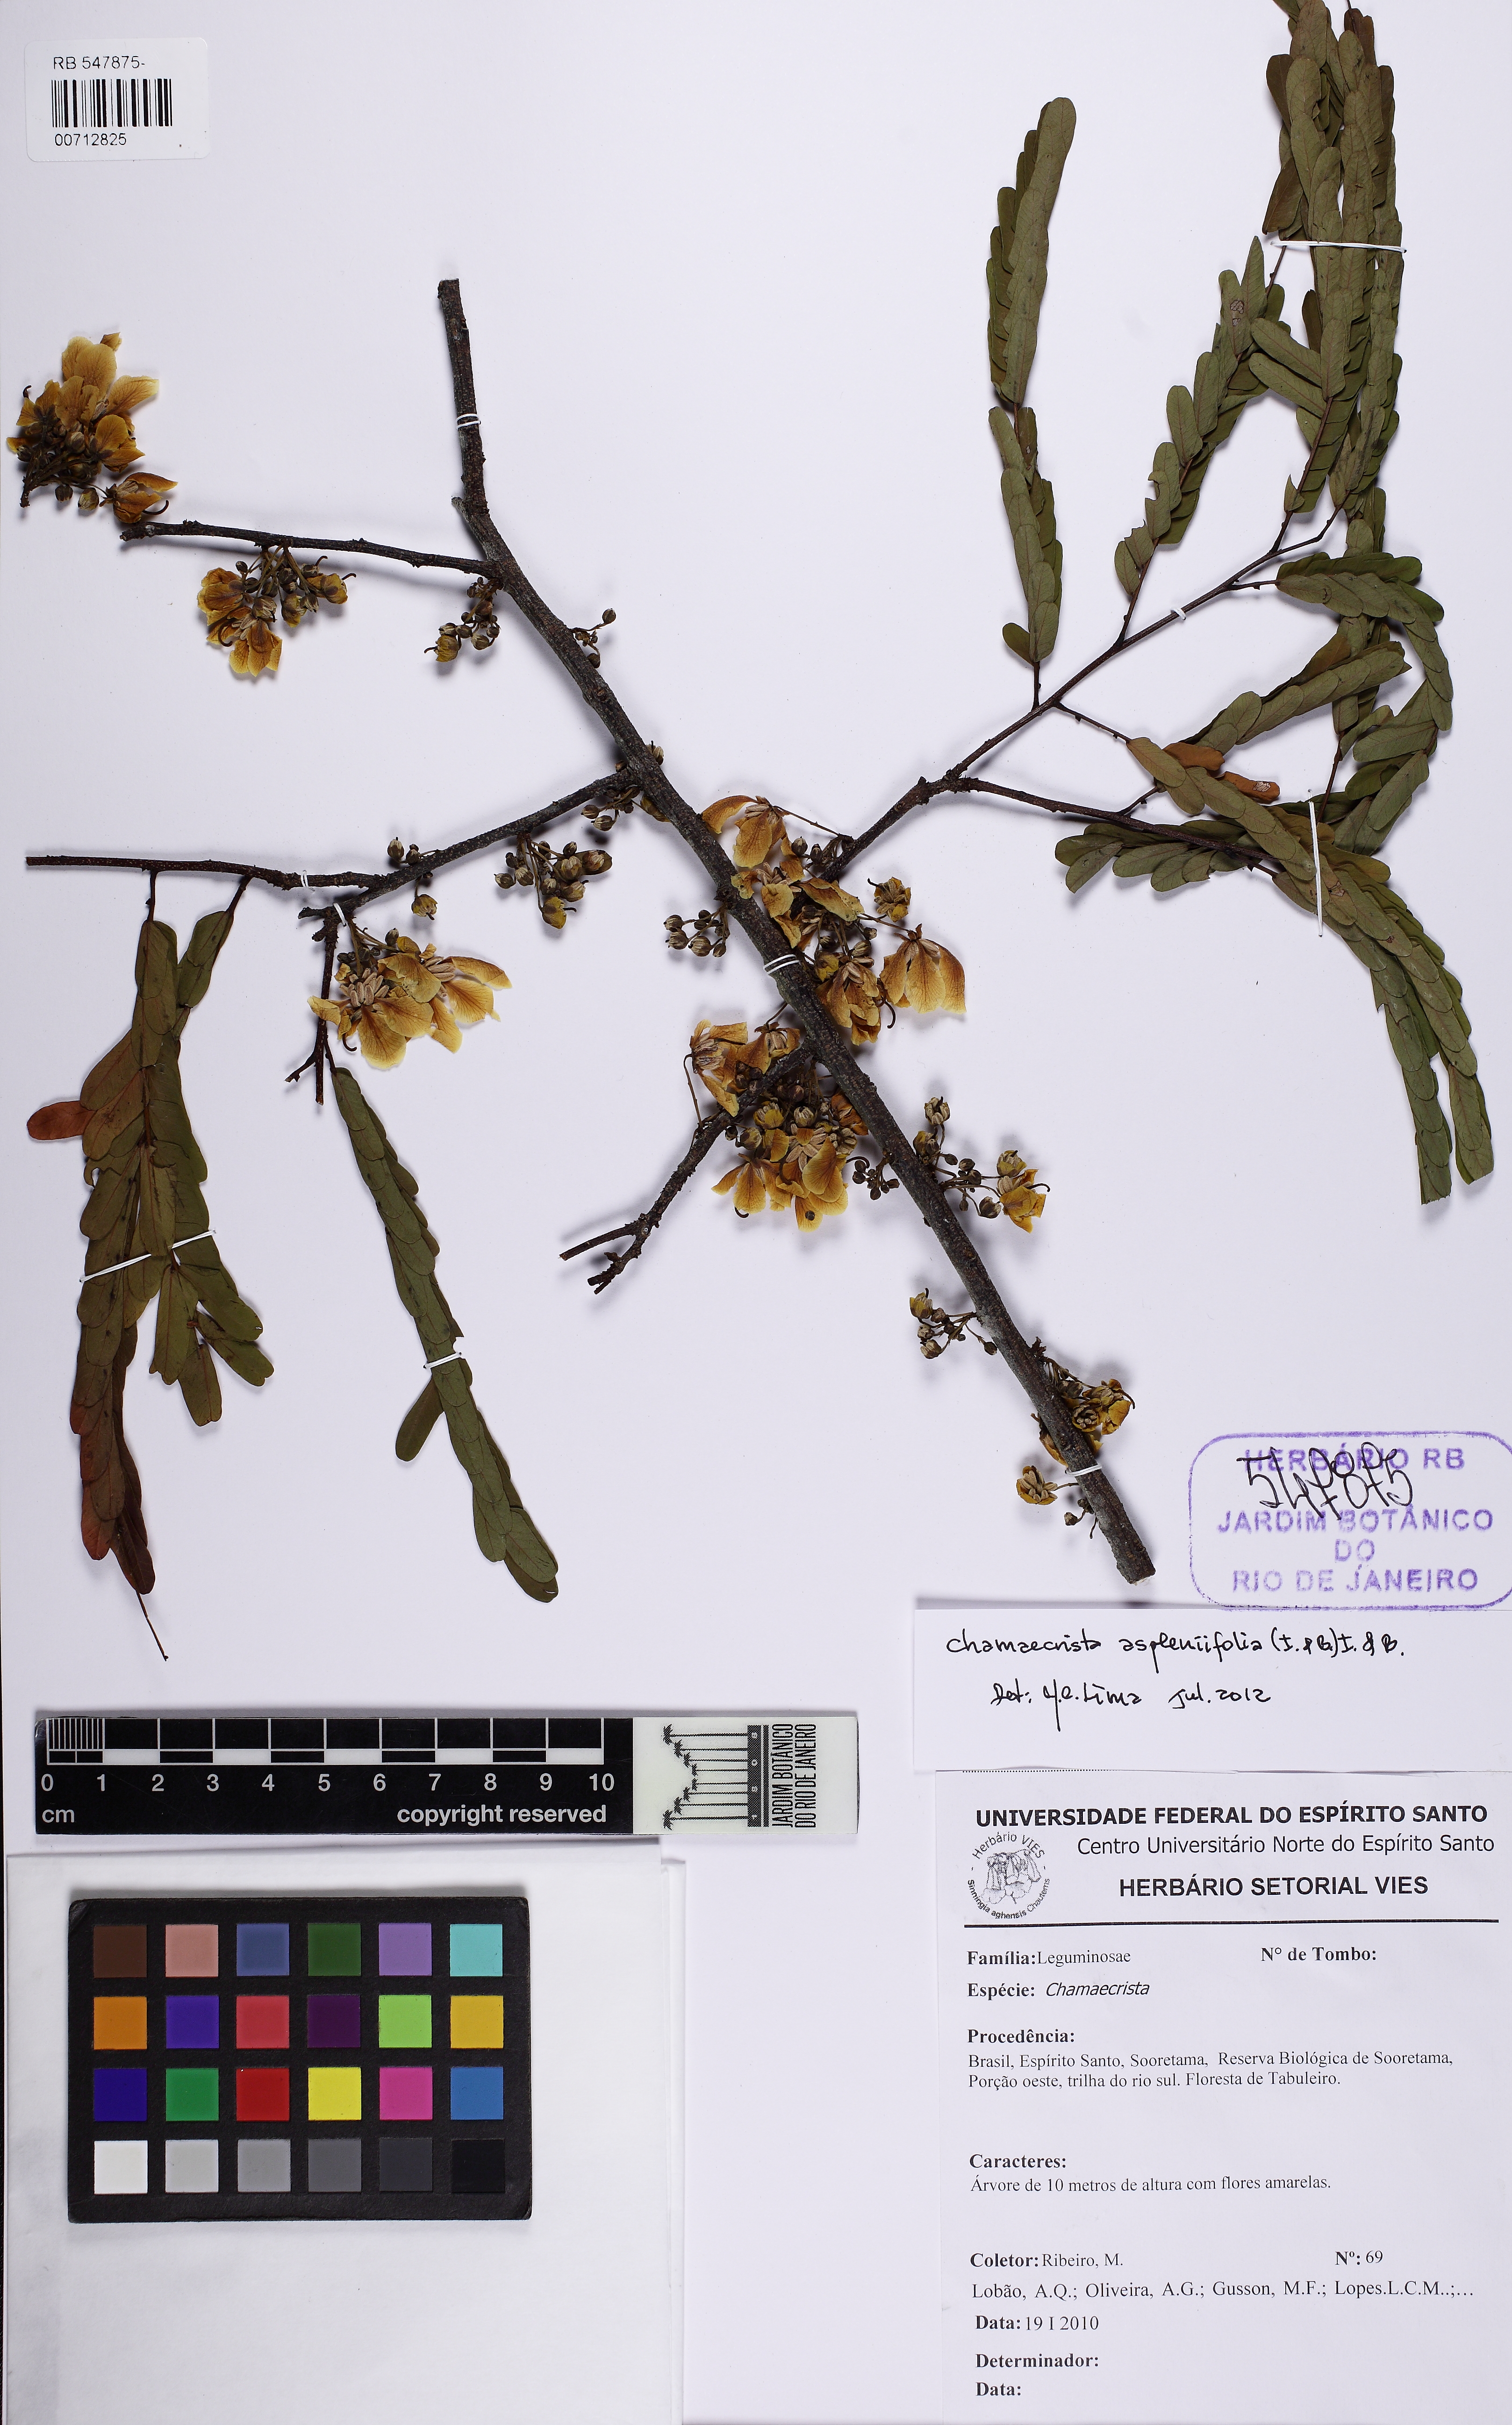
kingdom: Plantae
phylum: Tracheophyta
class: Magnoliopsida
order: Fabales
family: Fabaceae
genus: Chamaecrista
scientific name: Chamaecrista aspleniifolia
